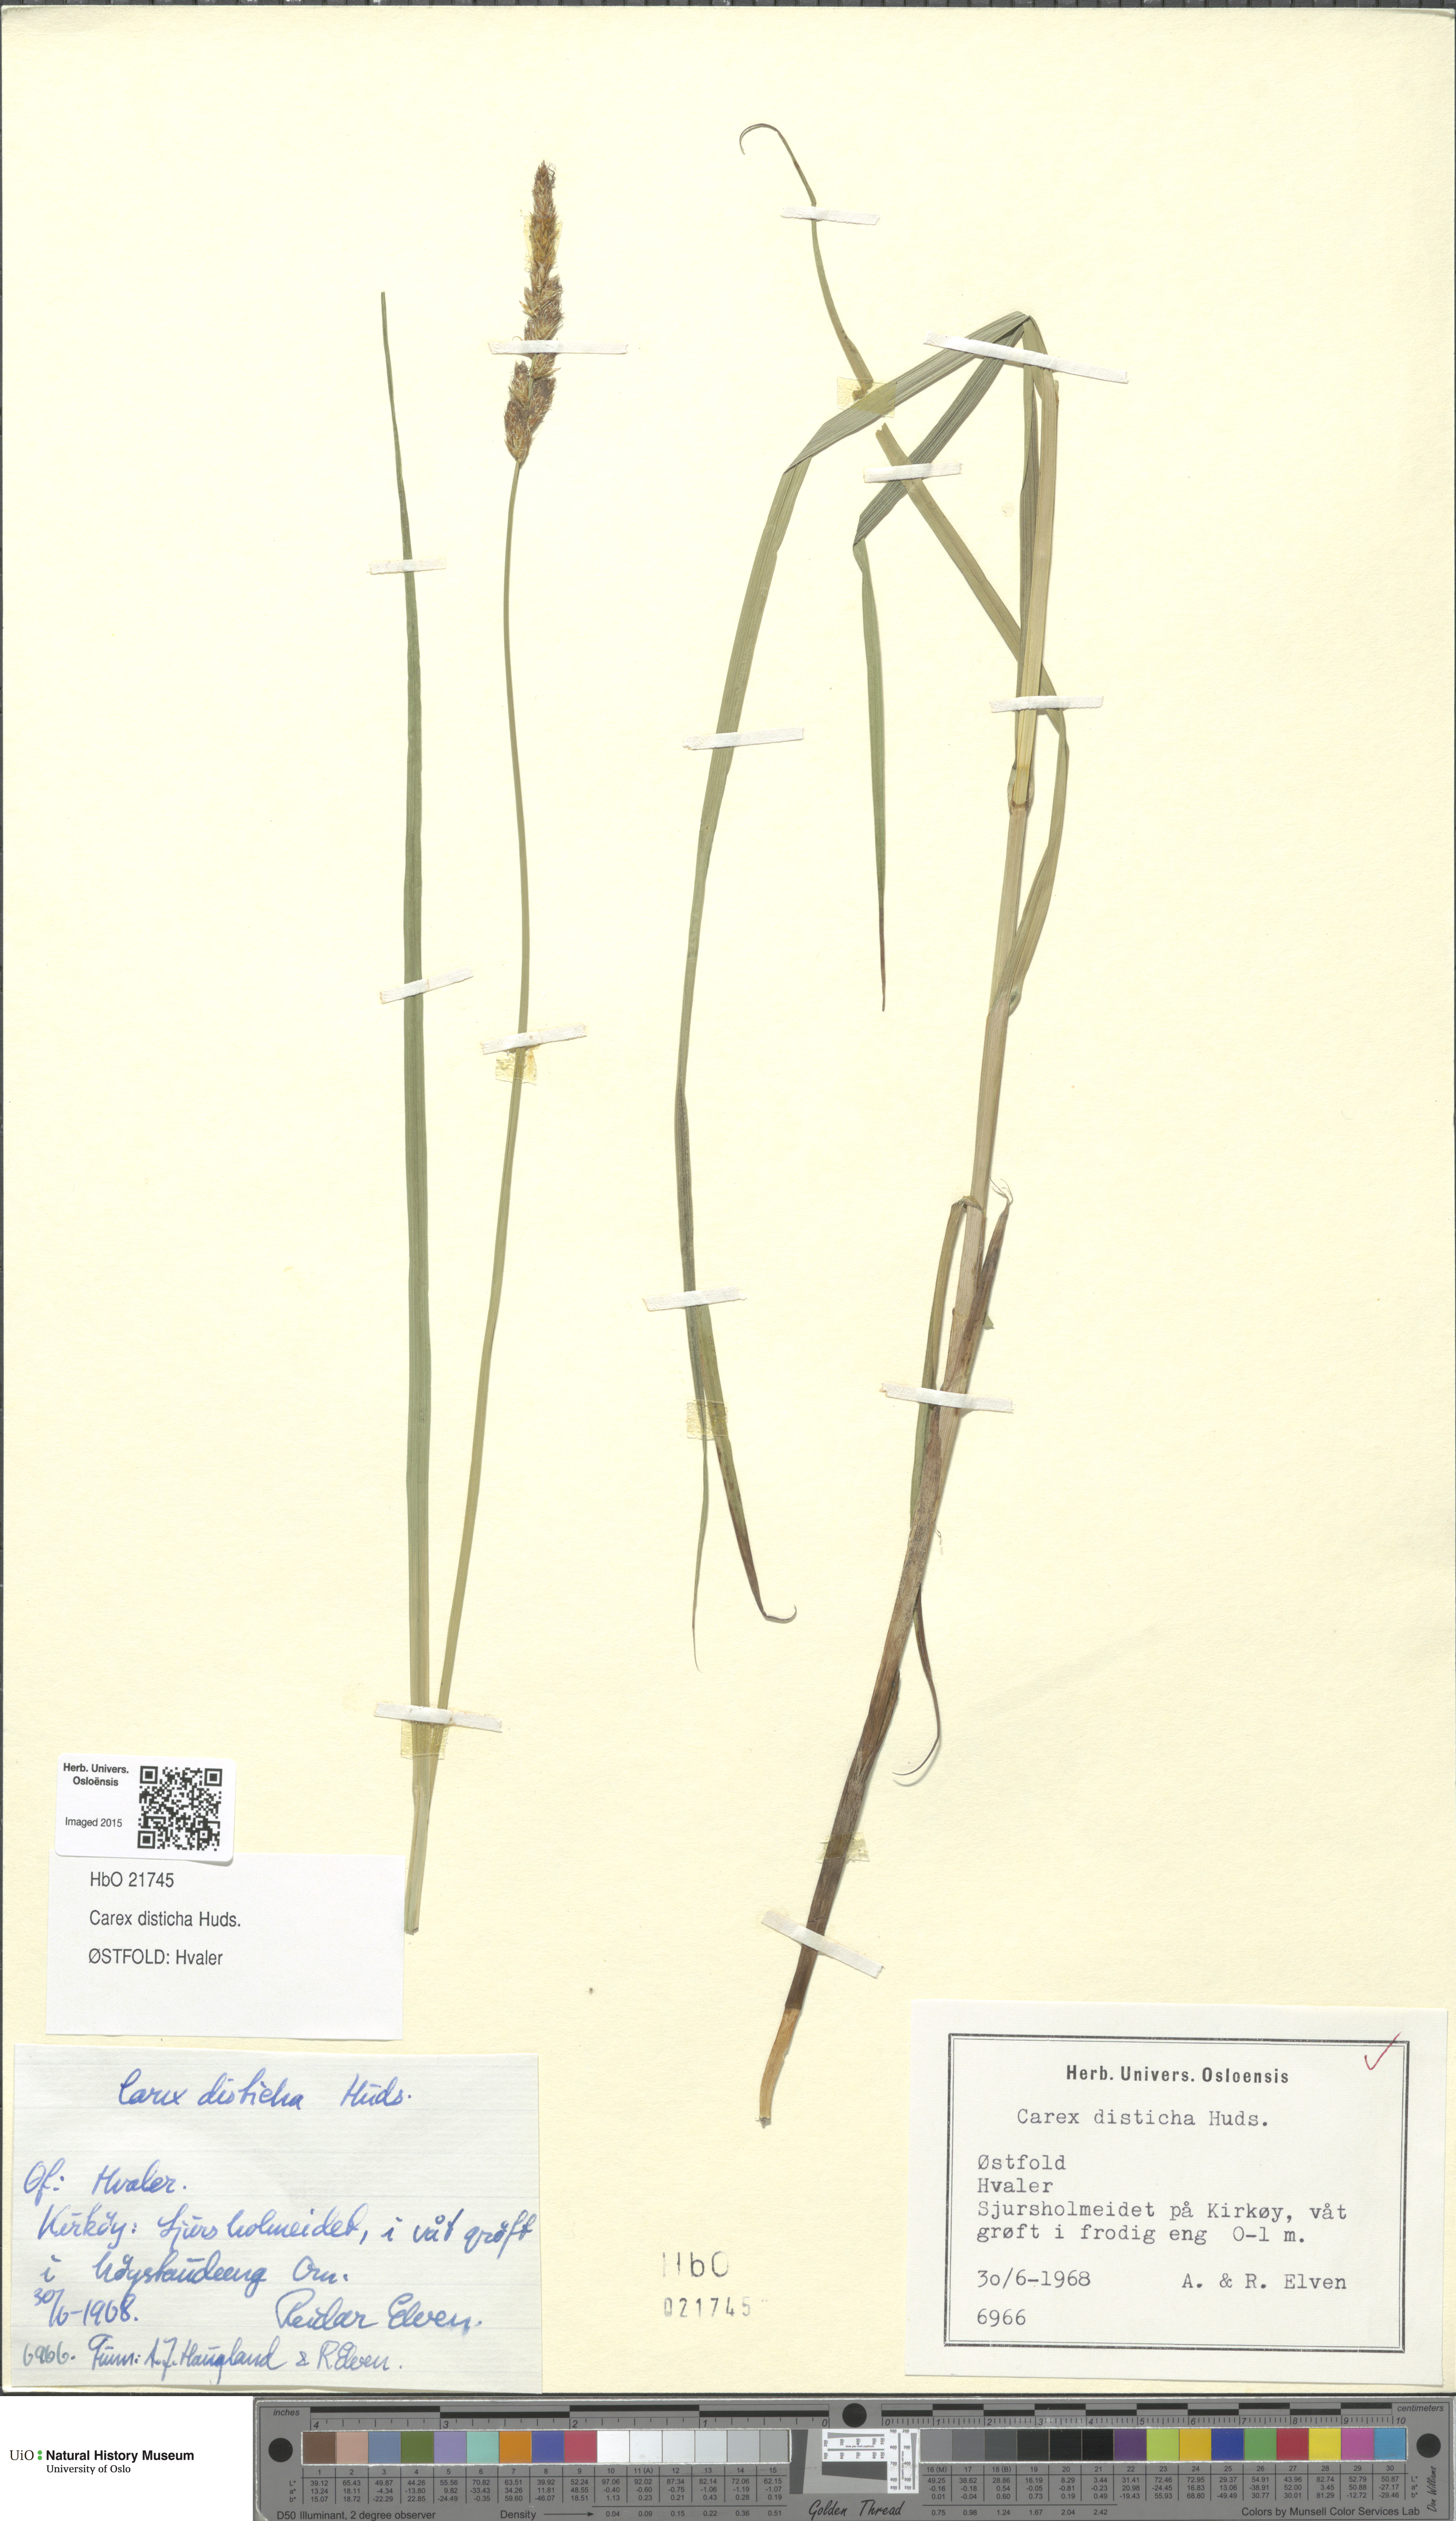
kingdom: Plantae
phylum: Tracheophyta
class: Liliopsida
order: Poales
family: Cyperaceae
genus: Carex
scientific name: Carex disticha
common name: Brown sedge
